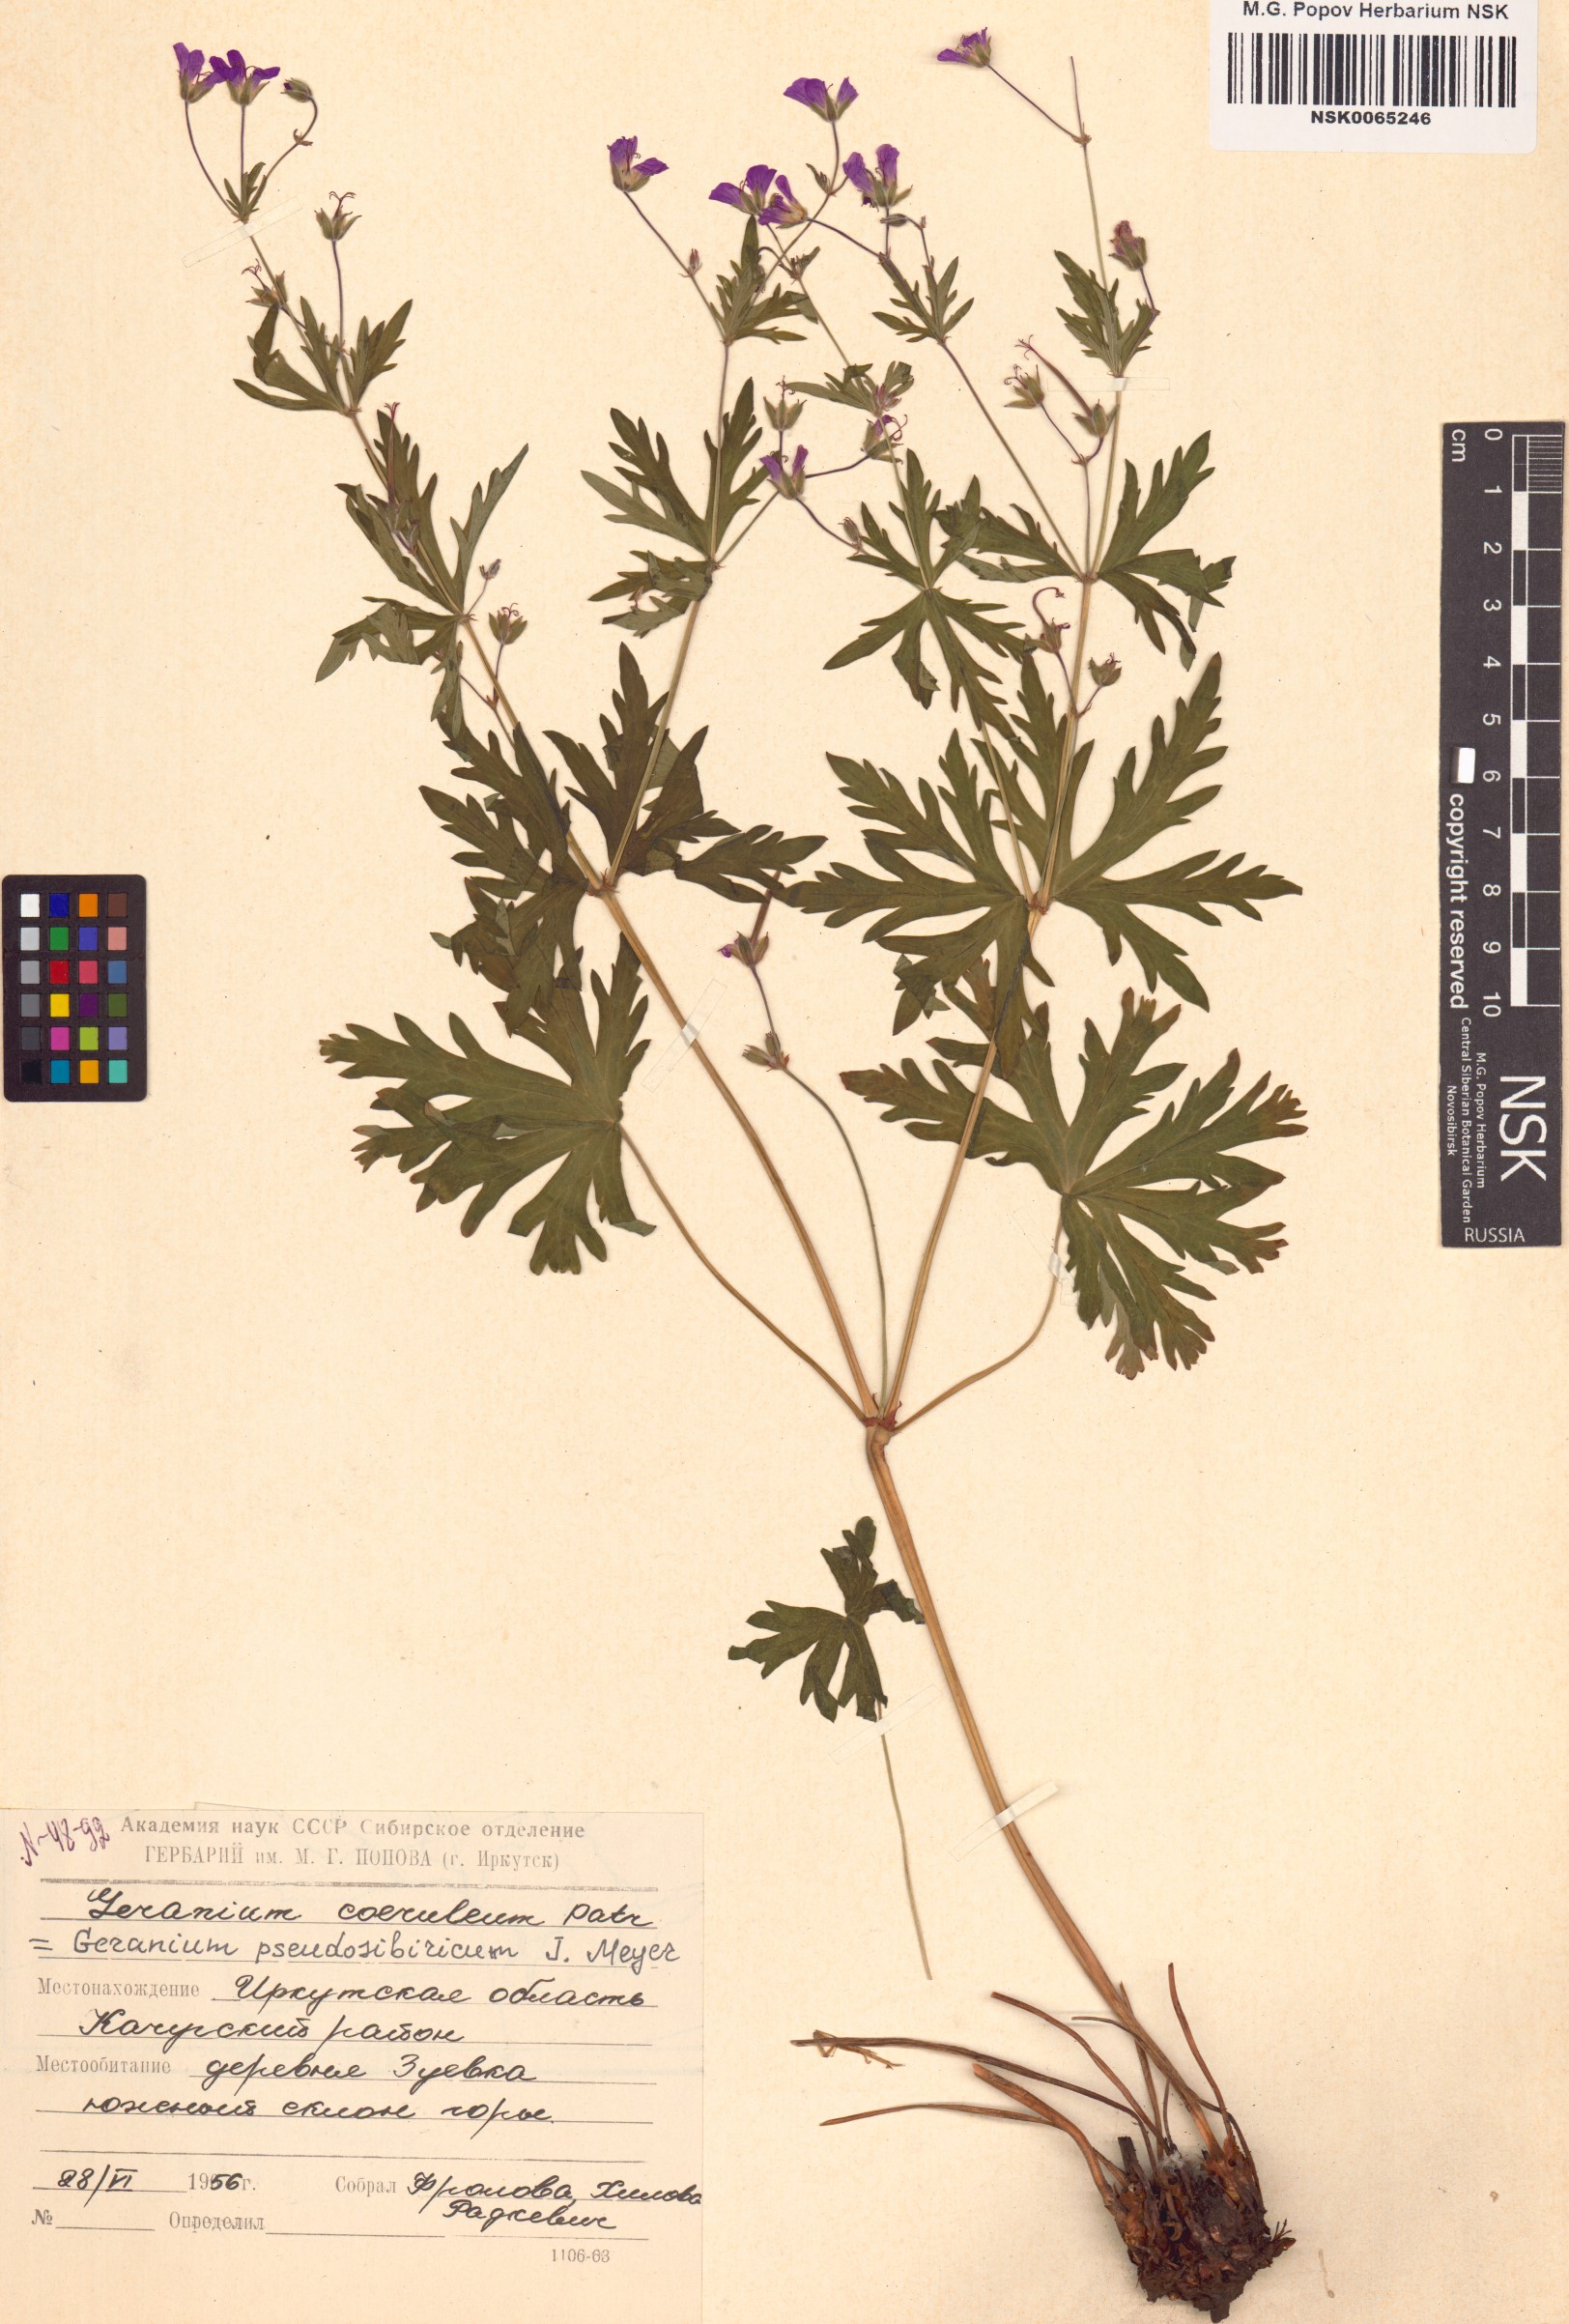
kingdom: Plantae
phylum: Tracheophyta
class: Magnoliopsida
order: Geraniales
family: Geraniaceae
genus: Geranium
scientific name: Geranium pseudosibiricum
